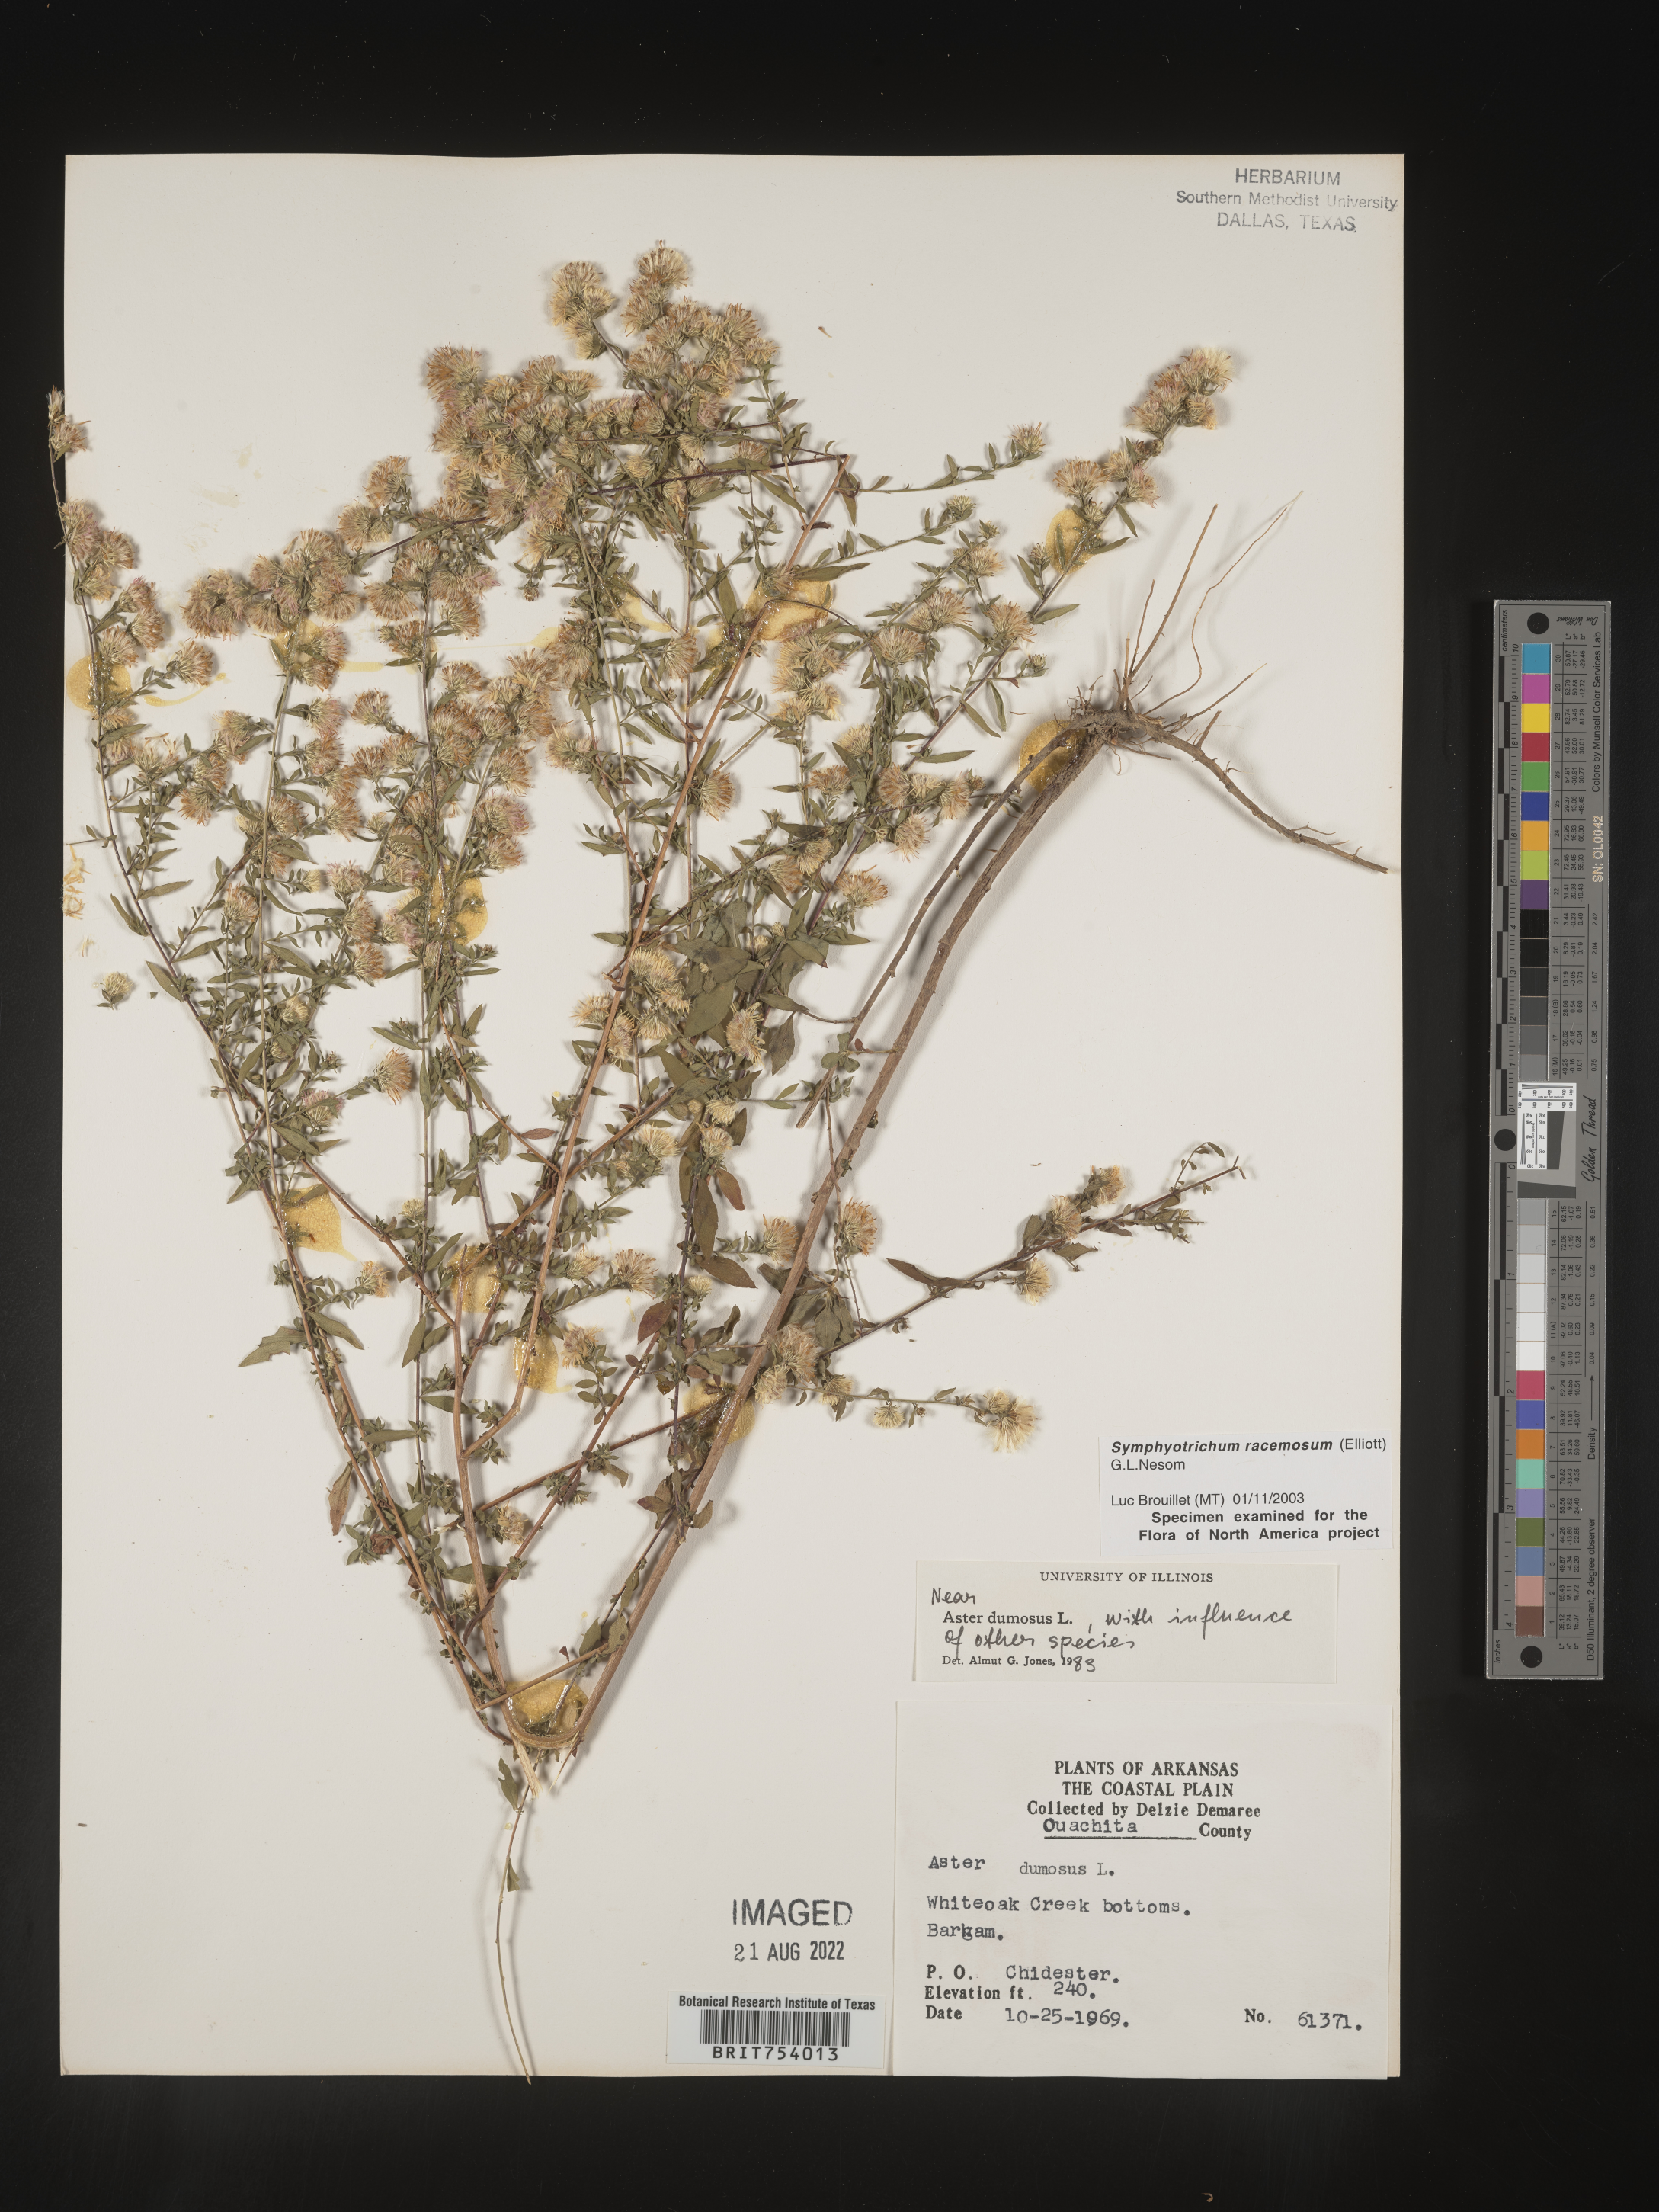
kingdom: Plantae
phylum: Tracheophyta
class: Magnoliopsida
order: Asterales
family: Asteraceae
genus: Symphyotrichum
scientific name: Symphyotrichum racemosum
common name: Small white aster
